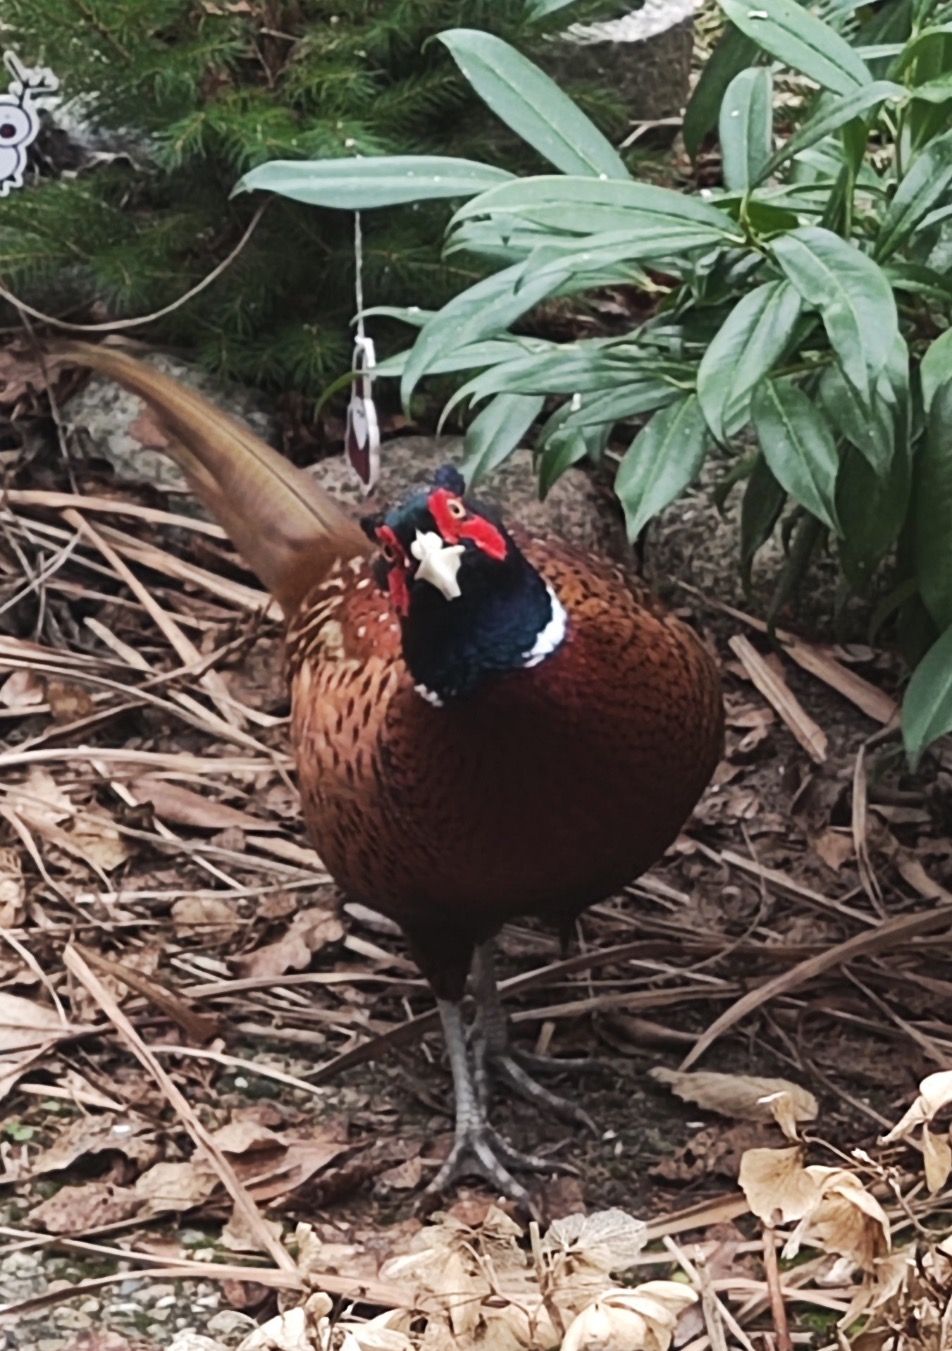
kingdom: Animalia
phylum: Chordata
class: Aves
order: Galliformes
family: Phasianidae
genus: Phasianus
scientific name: Phasianus colchicus
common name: Fasan
